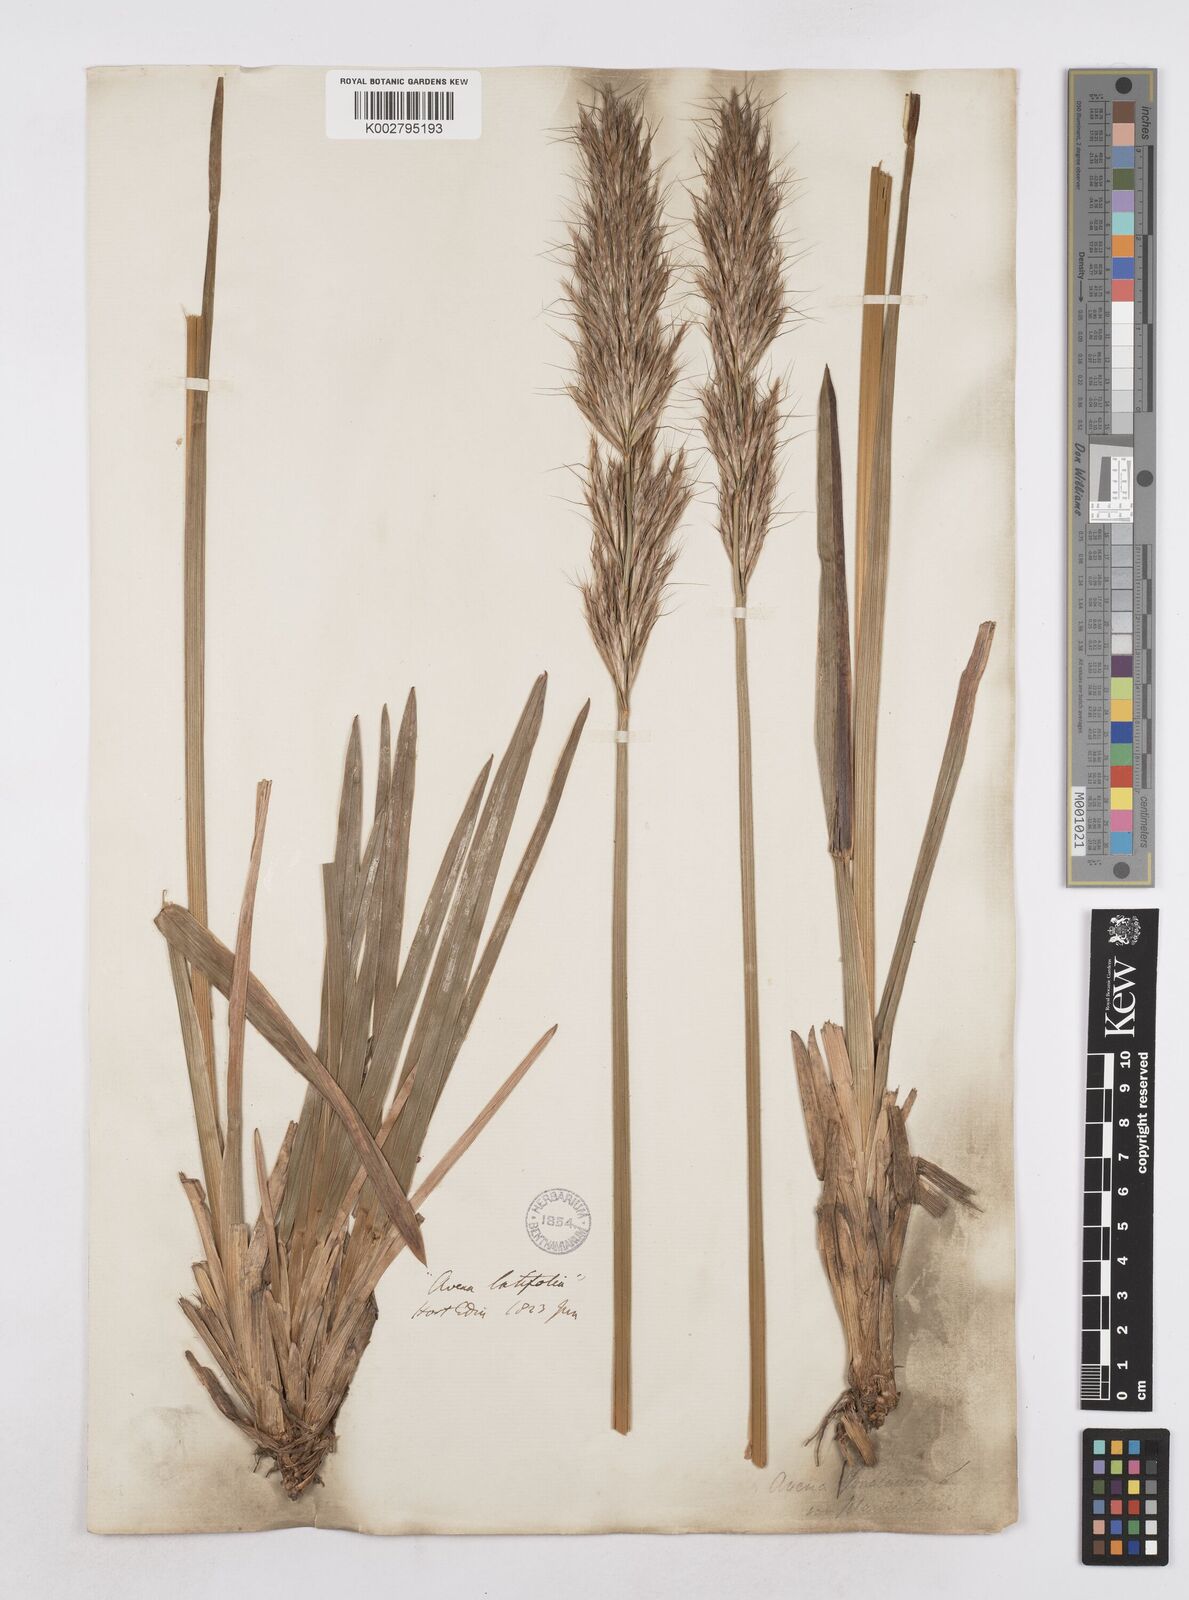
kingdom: Plantae
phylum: Tracheophyta
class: Liliopsida
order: Poales
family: Poaceae
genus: Helictochloa
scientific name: Helictochloa planiculmis
